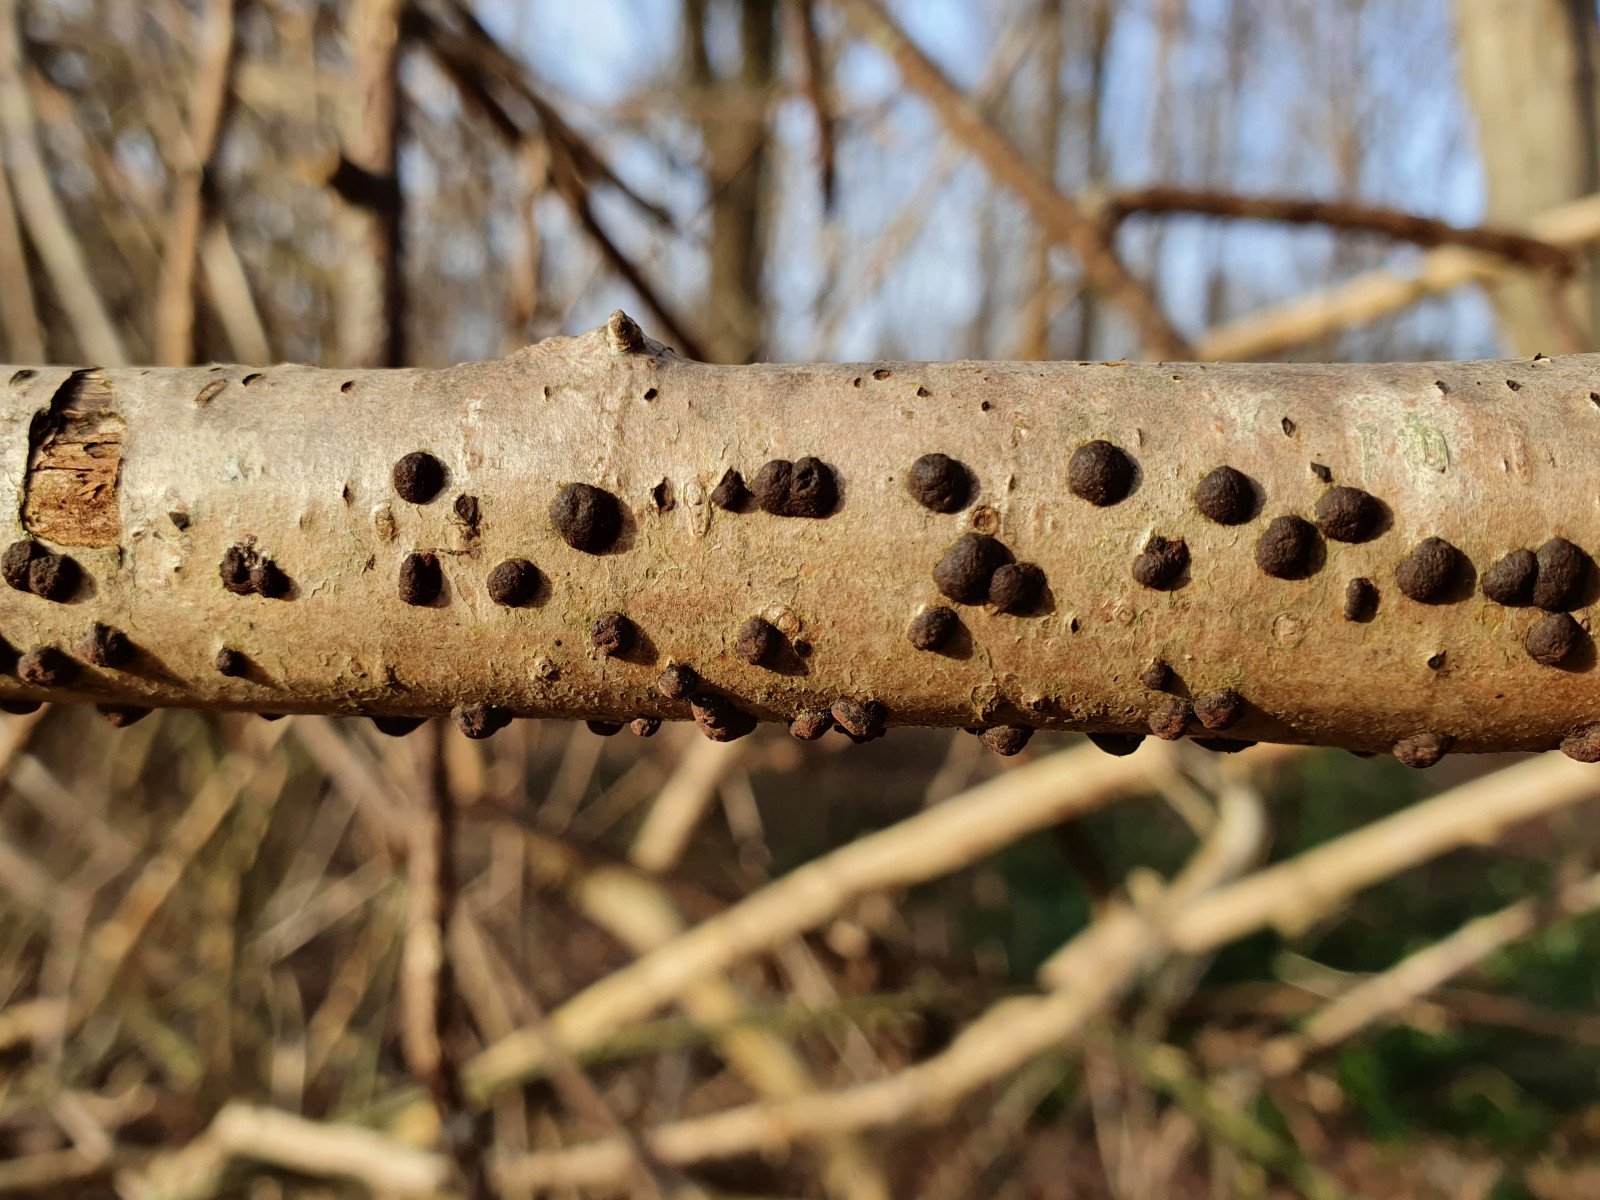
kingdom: Fungi
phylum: Ascomycota
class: Sordariomycetes
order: Xylariales
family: Hypoxylaceae
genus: Hypoxylon
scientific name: Hypoxylon fuscum
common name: kegleformet kulbær
